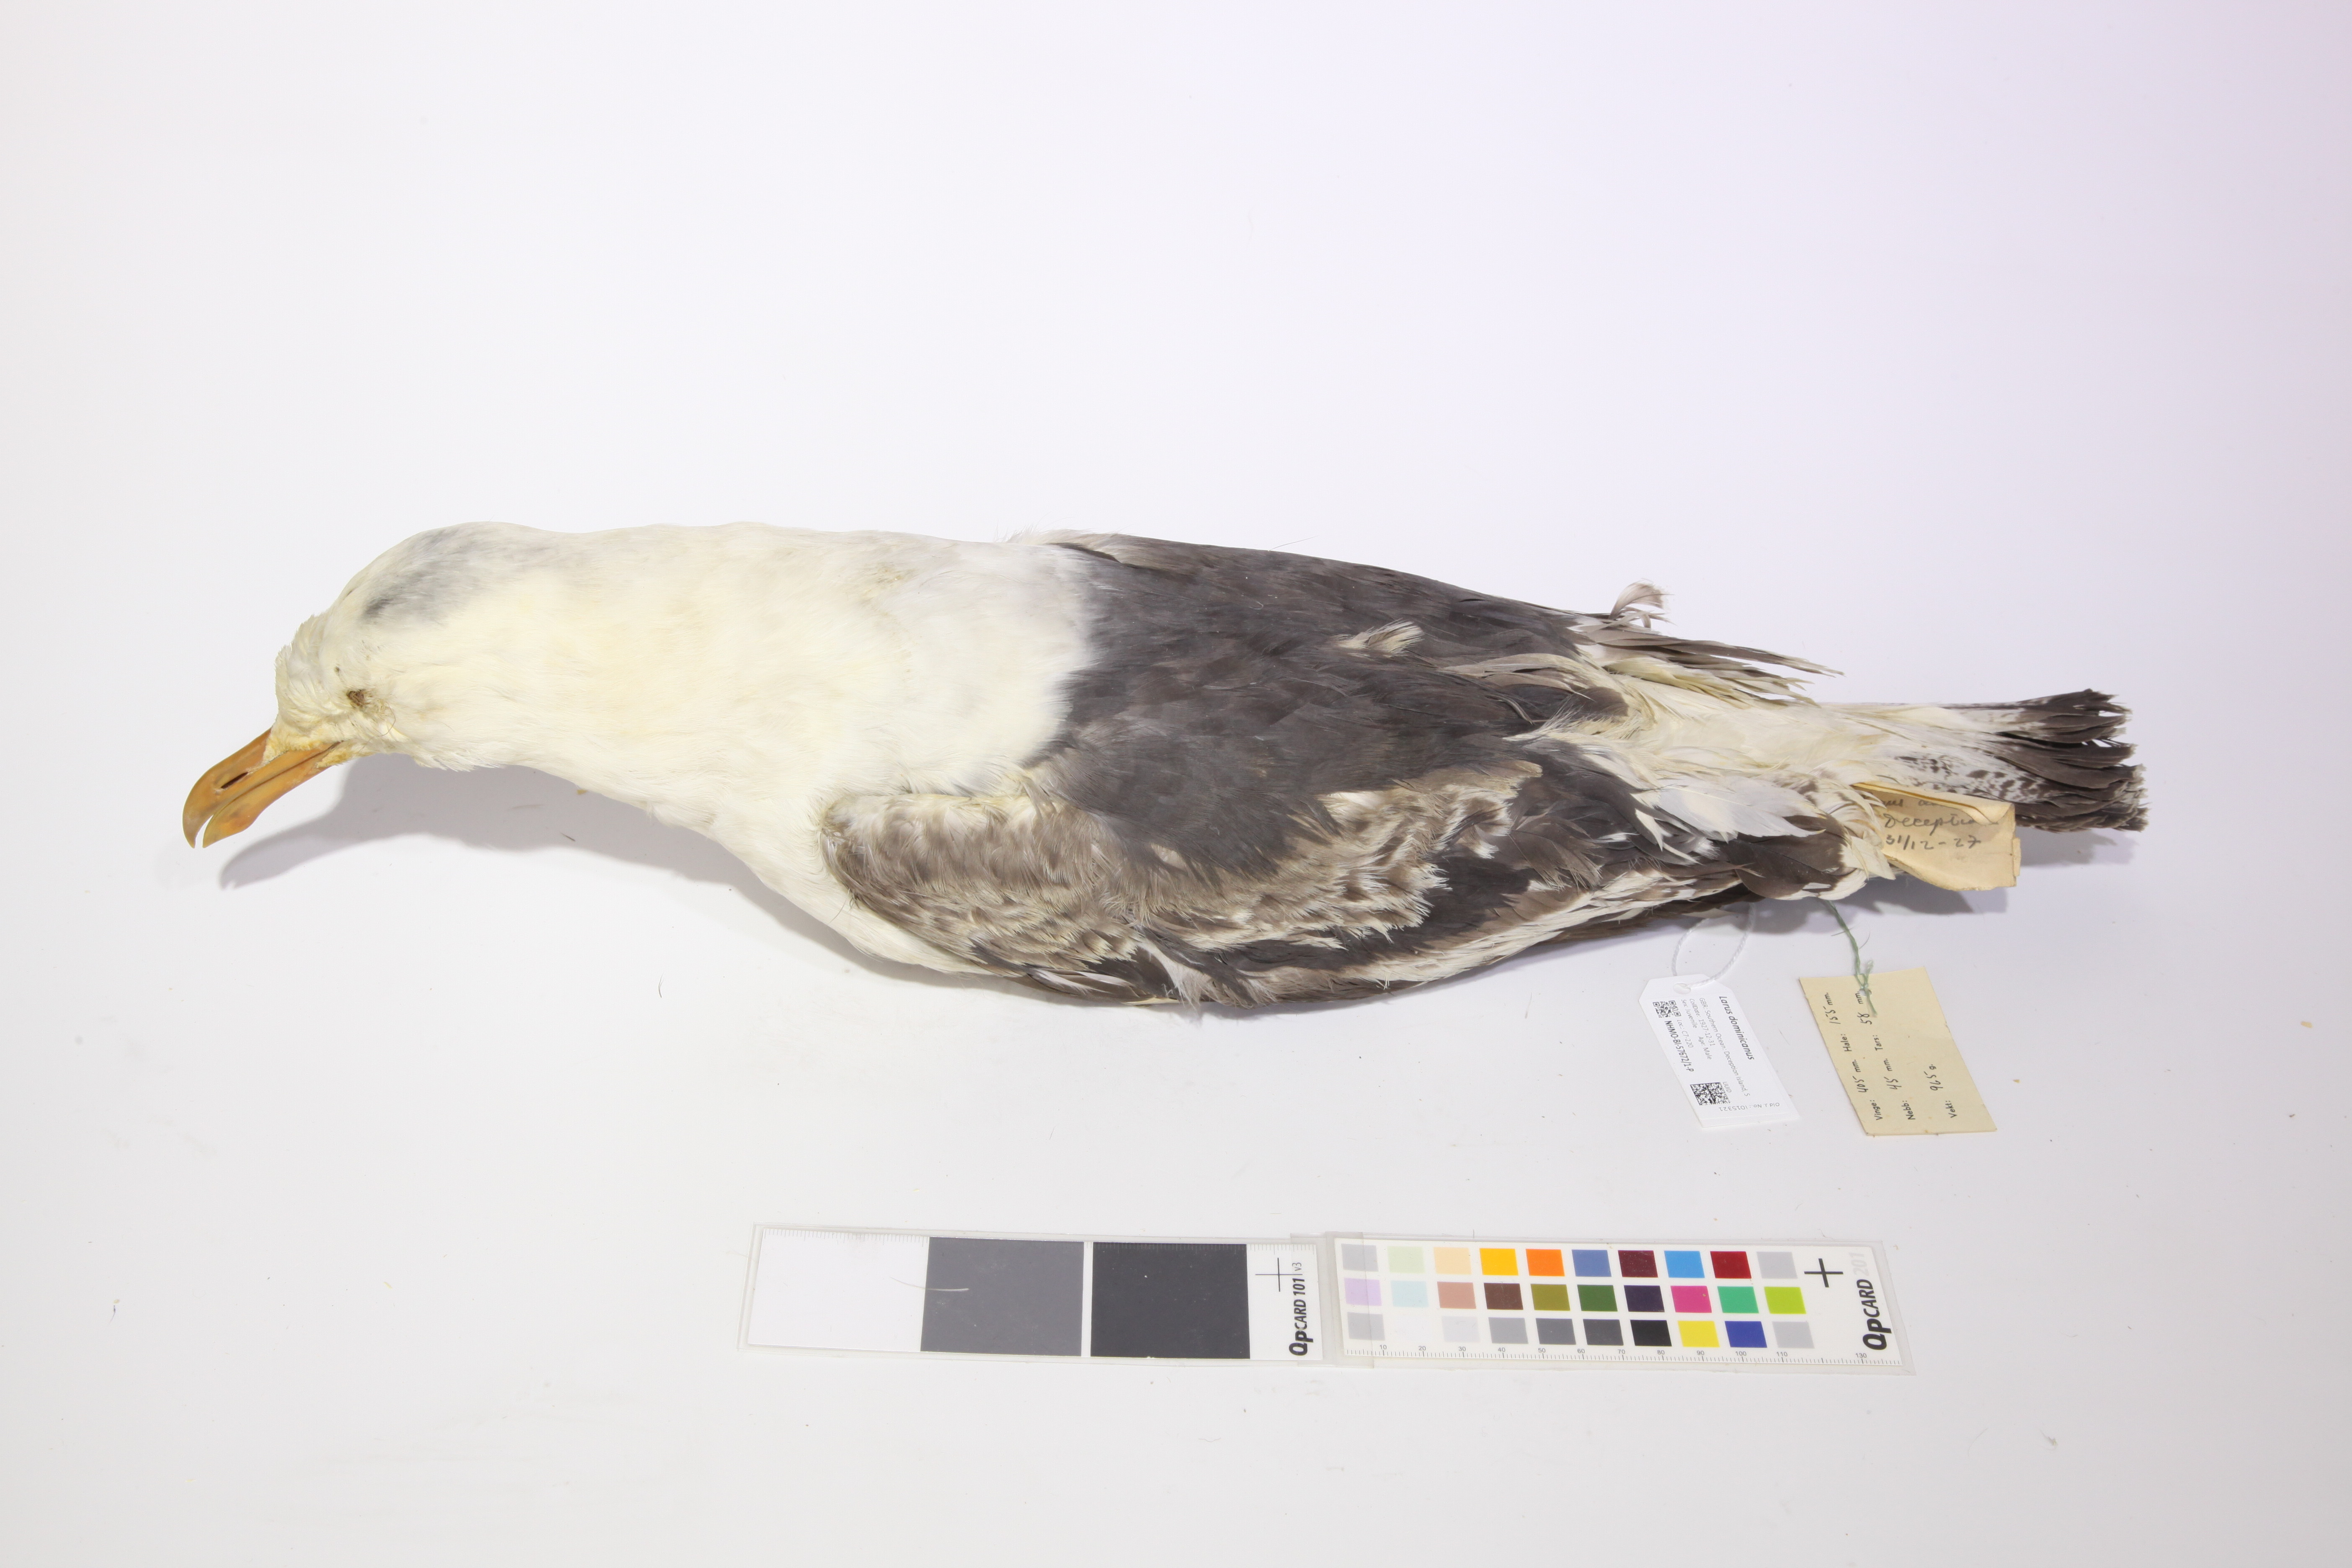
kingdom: Animalia
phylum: Chordata
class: Aves
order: Charadriiformes
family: Laridae
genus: Larus
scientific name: Larus dominicanus
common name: Kelp gull
